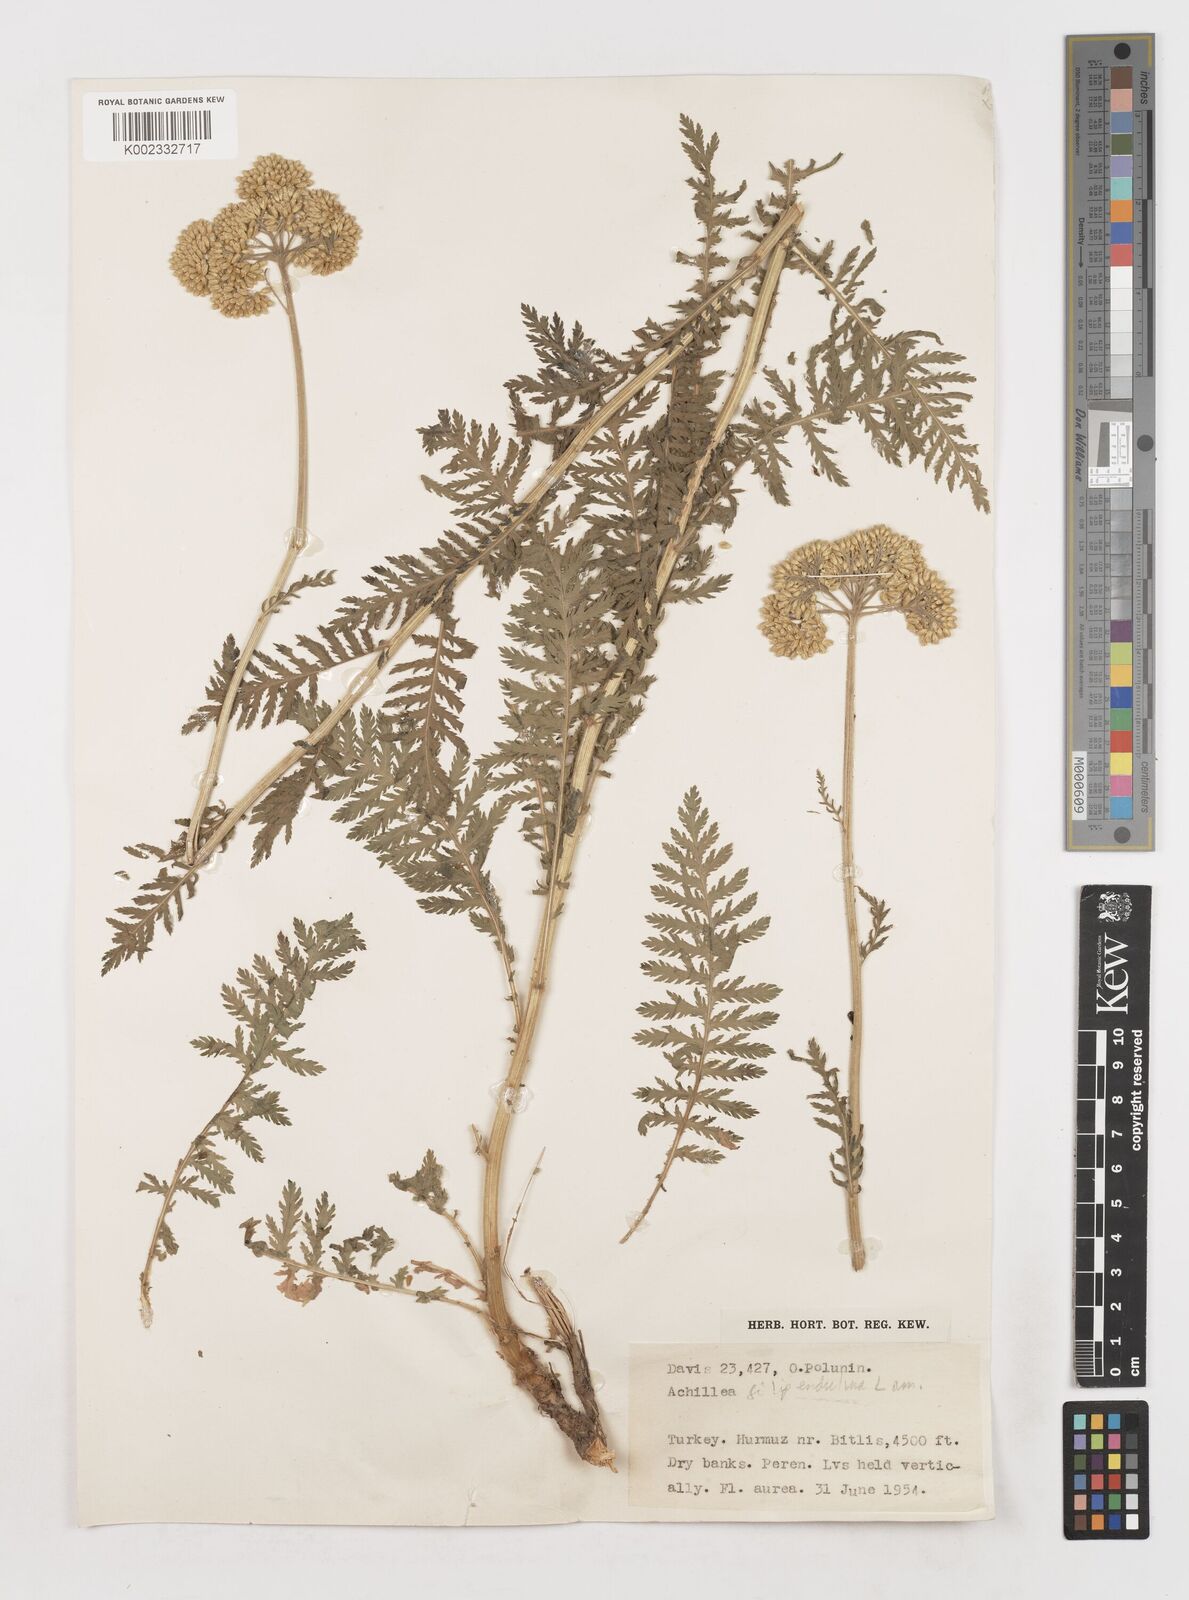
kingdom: Plantae
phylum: Tracheophyta
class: Magnoliopsida
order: Asterales
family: Asteraceae
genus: Achillea
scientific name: Achillea filipendulina
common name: Fernleaf yarrow
